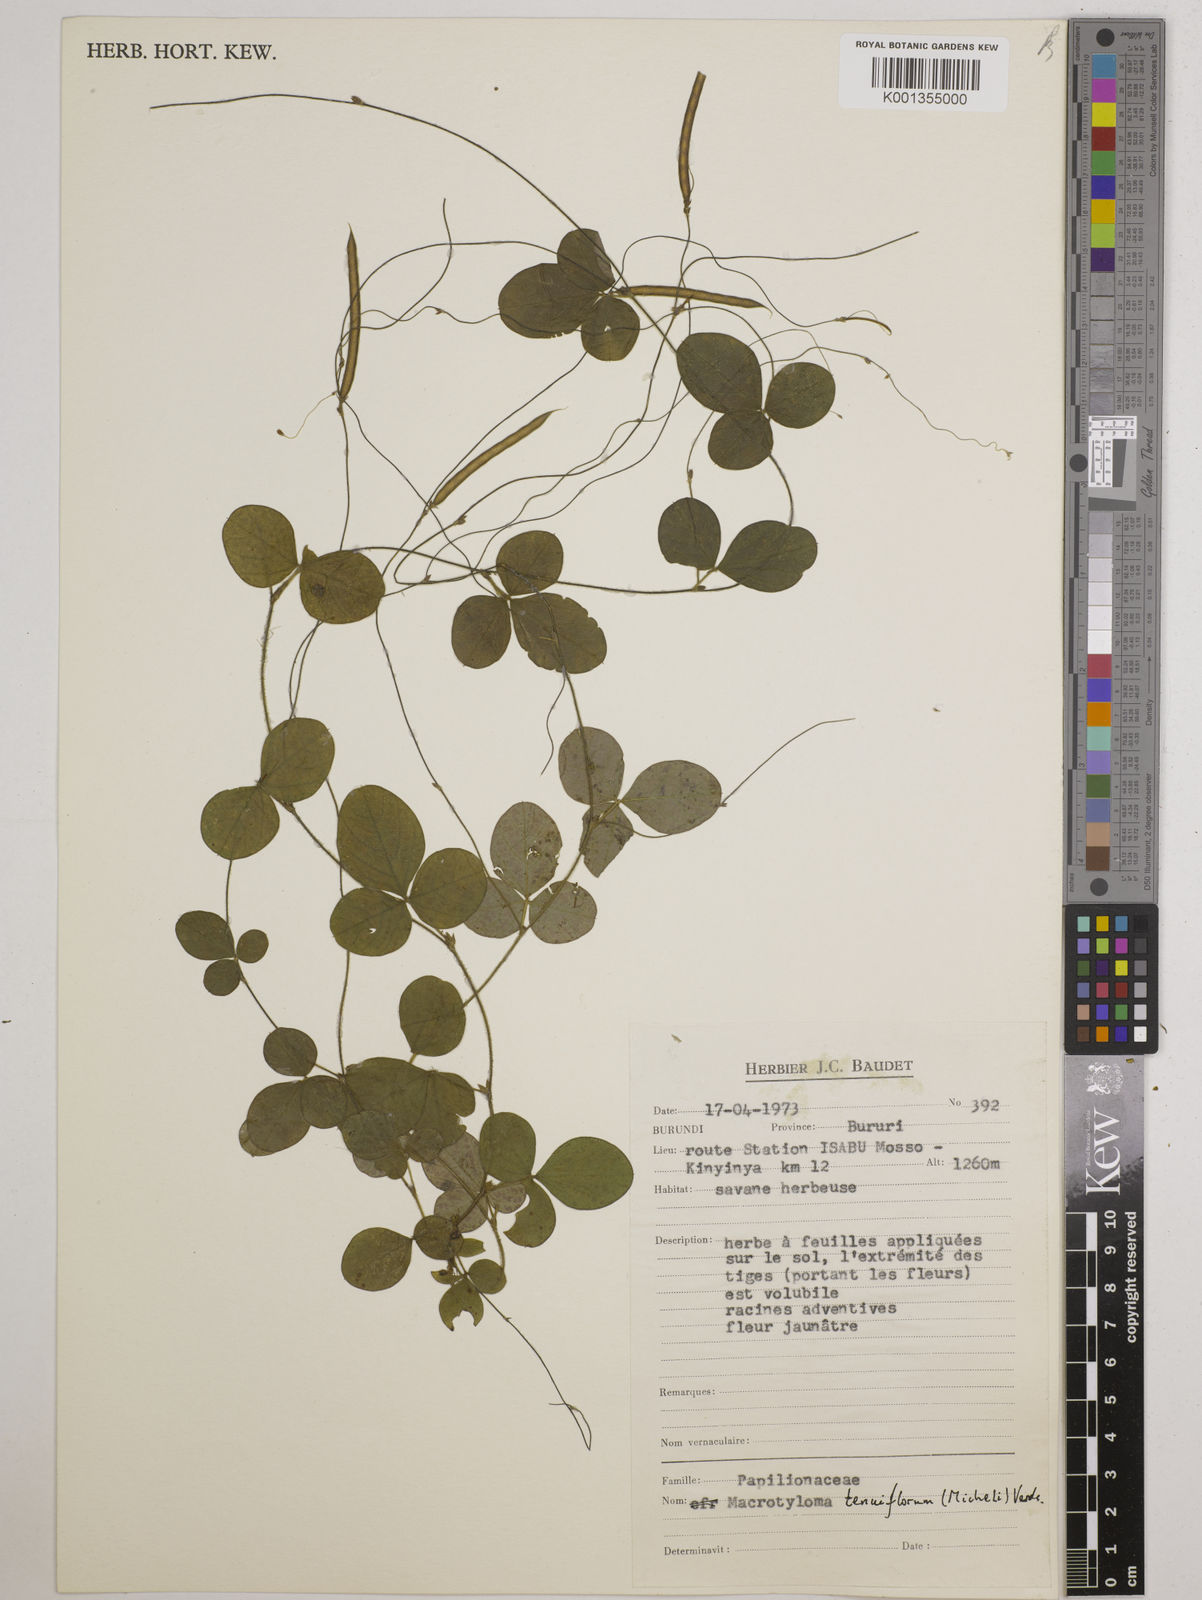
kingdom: Plantae
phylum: Tracheophyta
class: Magnoliopsida
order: Fabales
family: Fabaceae
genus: Macrotyloma
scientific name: Macrotyloma tenuiflorum
